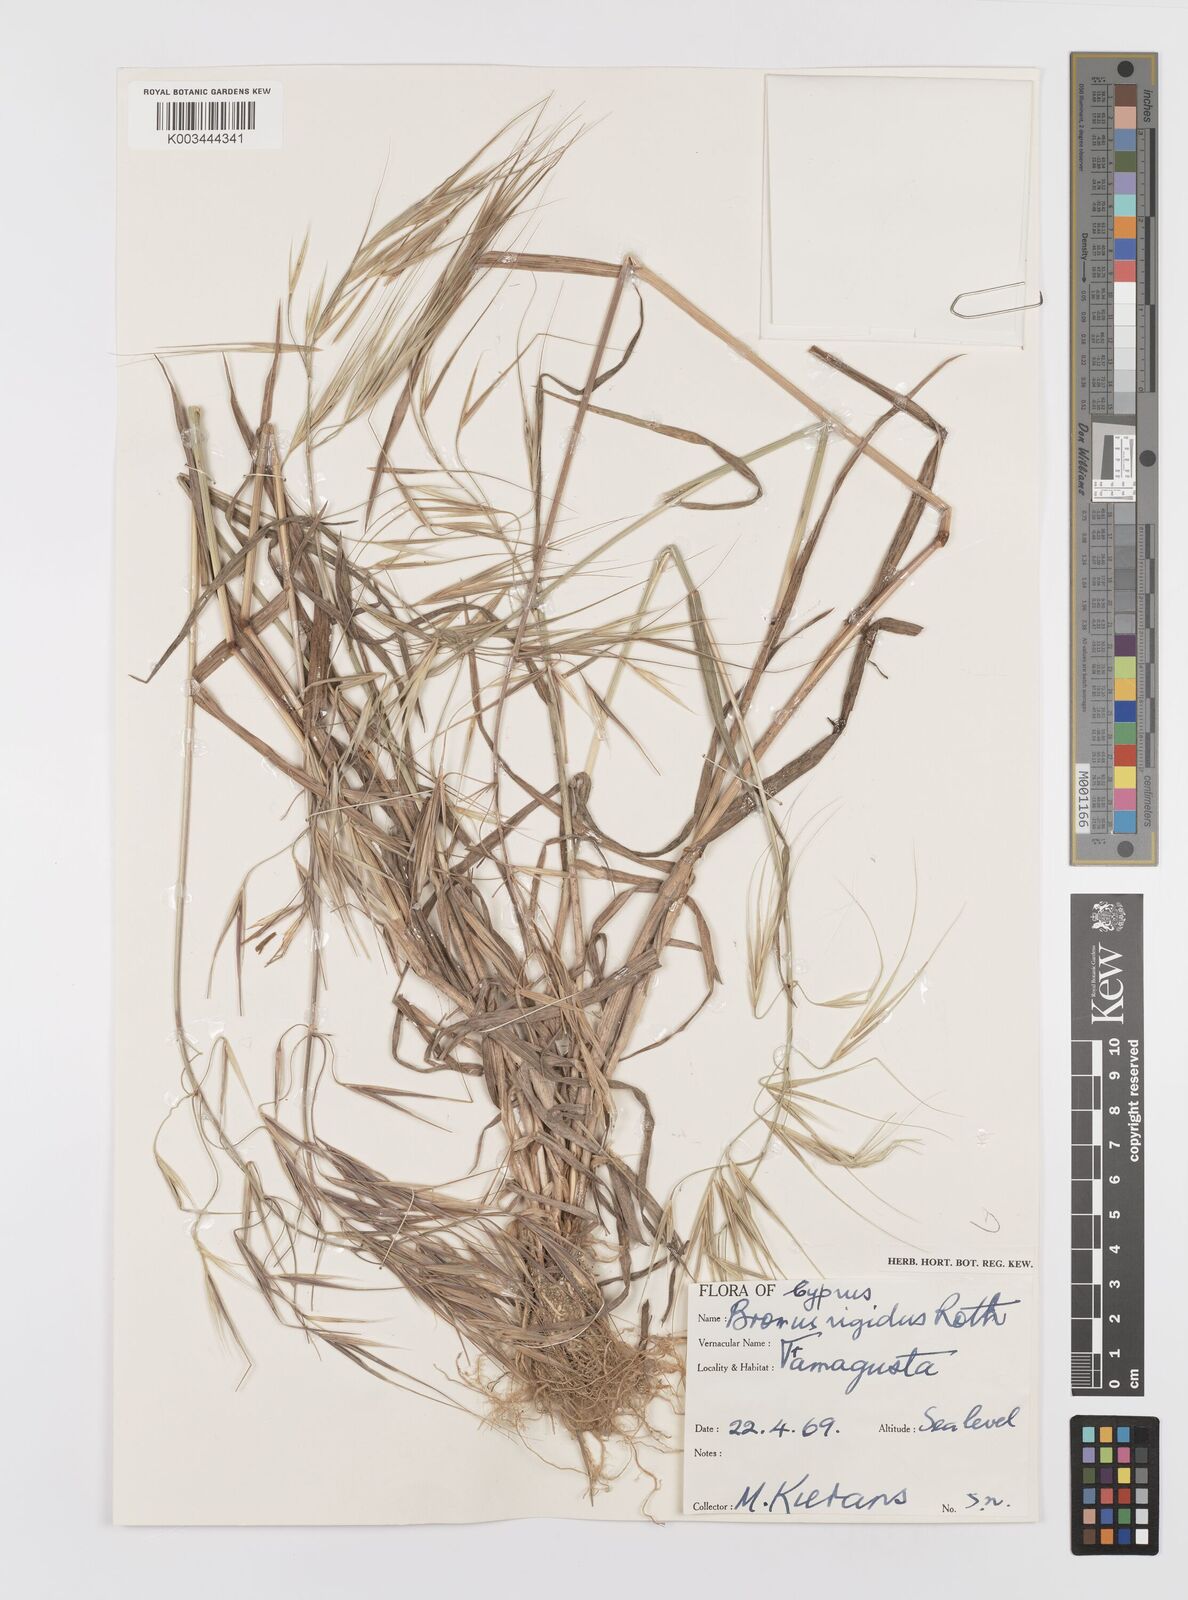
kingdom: Plantae
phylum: Tracheophyta
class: Liliopsida
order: Poales
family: Poaceae
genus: Bromus
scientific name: Bromus diandrus
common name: Ripgut brome
